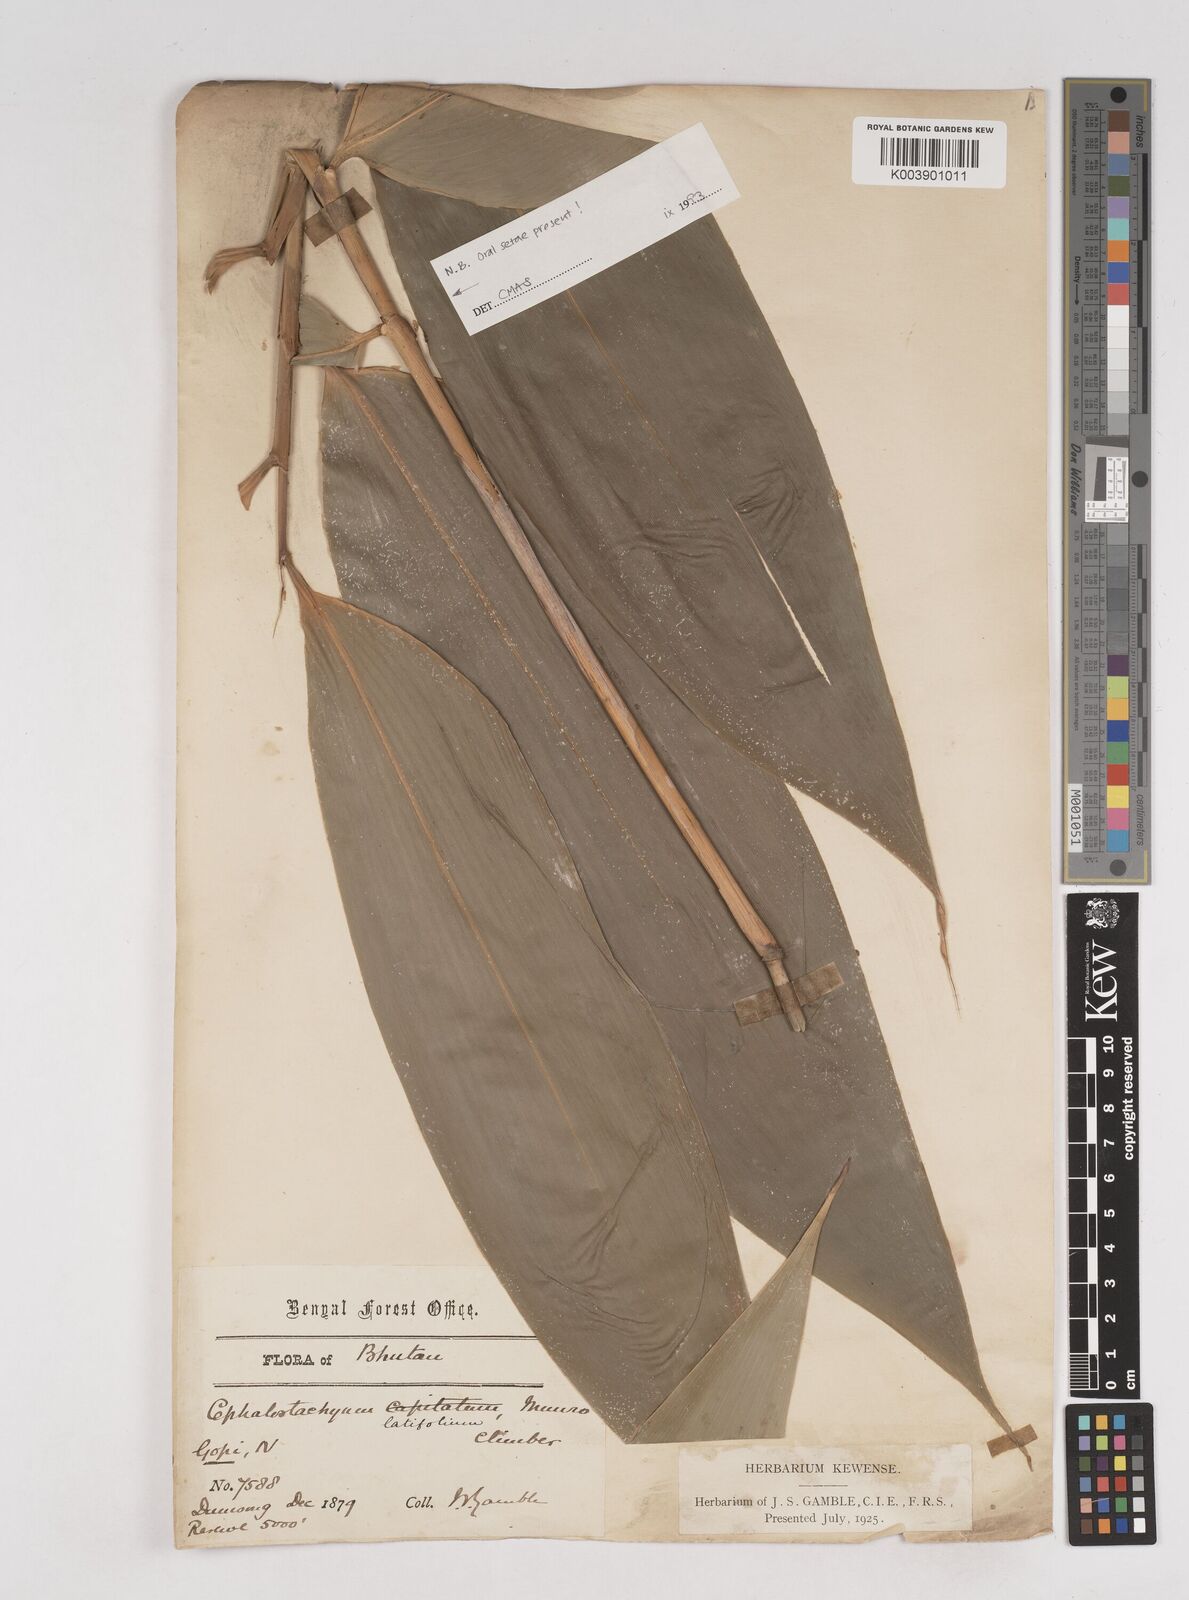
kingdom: Plantae
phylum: Tracheophyta
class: Liliopsida
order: Poales
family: Poaceae
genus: Cephalostachyum
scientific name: Cephalostachyum
